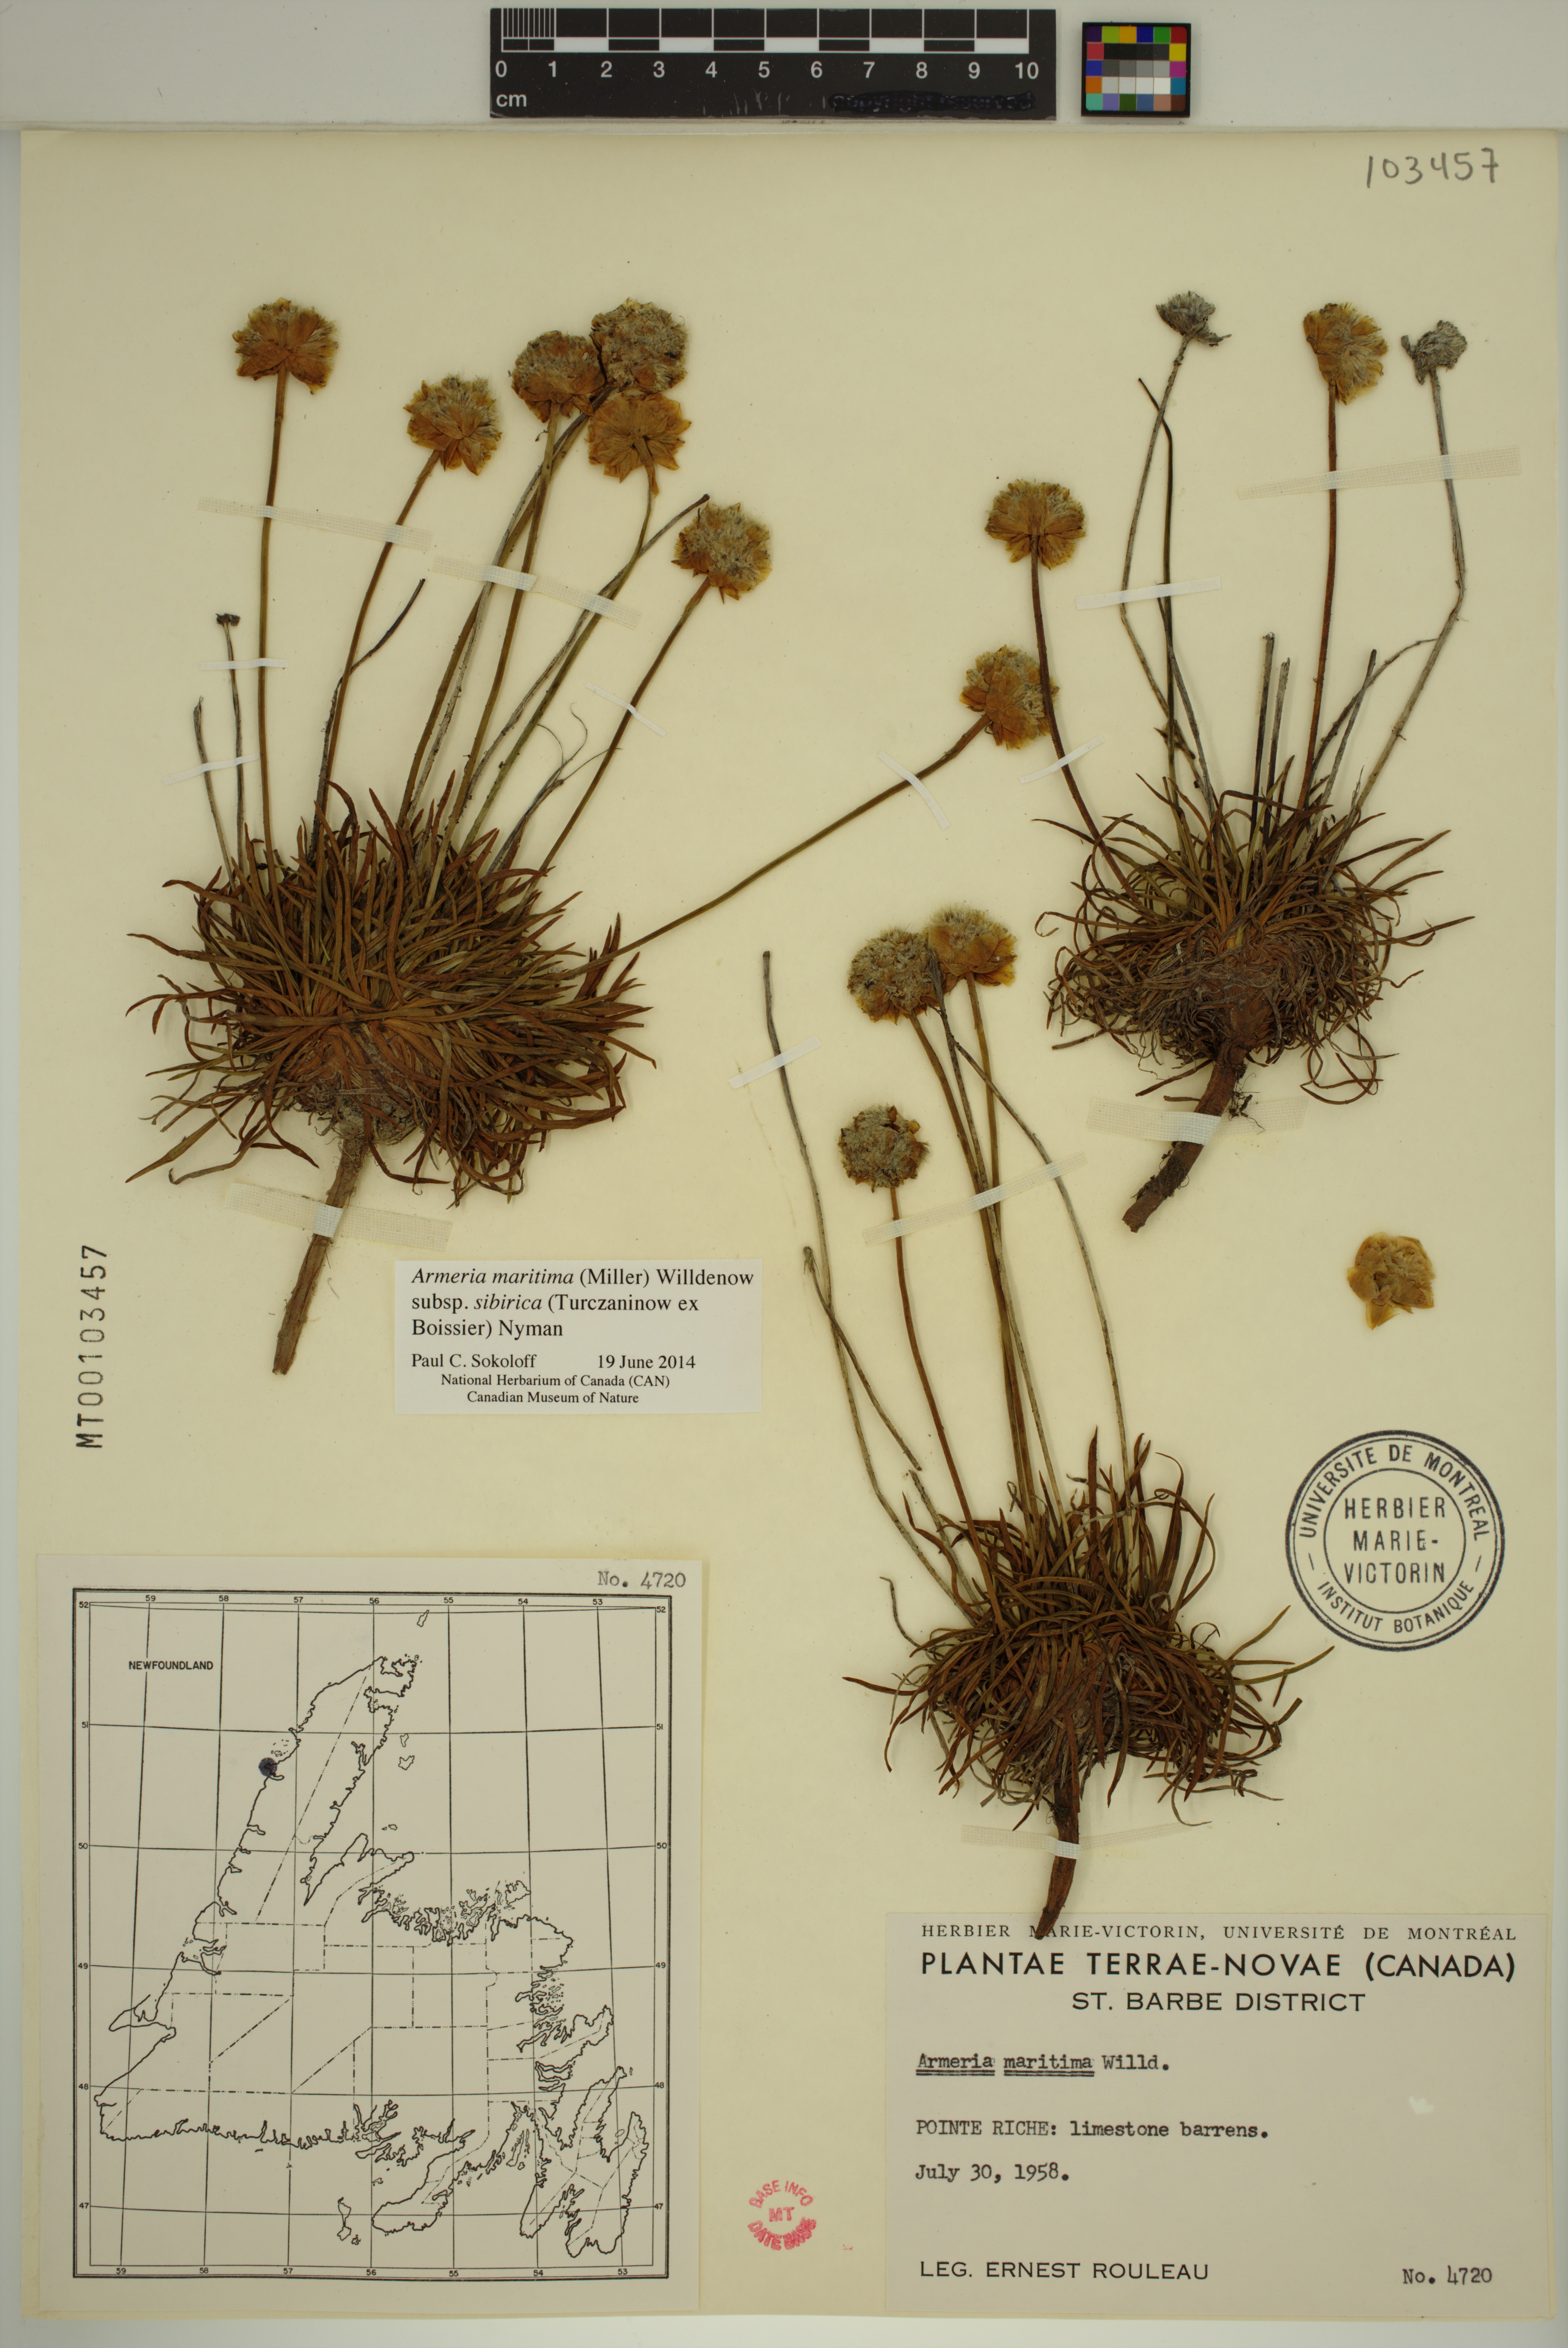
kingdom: Plantae
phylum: Tracheophyta
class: Magnoliopsida
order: Caryophyllales
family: Plumbaginaceae
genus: Armeria
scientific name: Armeria maritima
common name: Thrift
